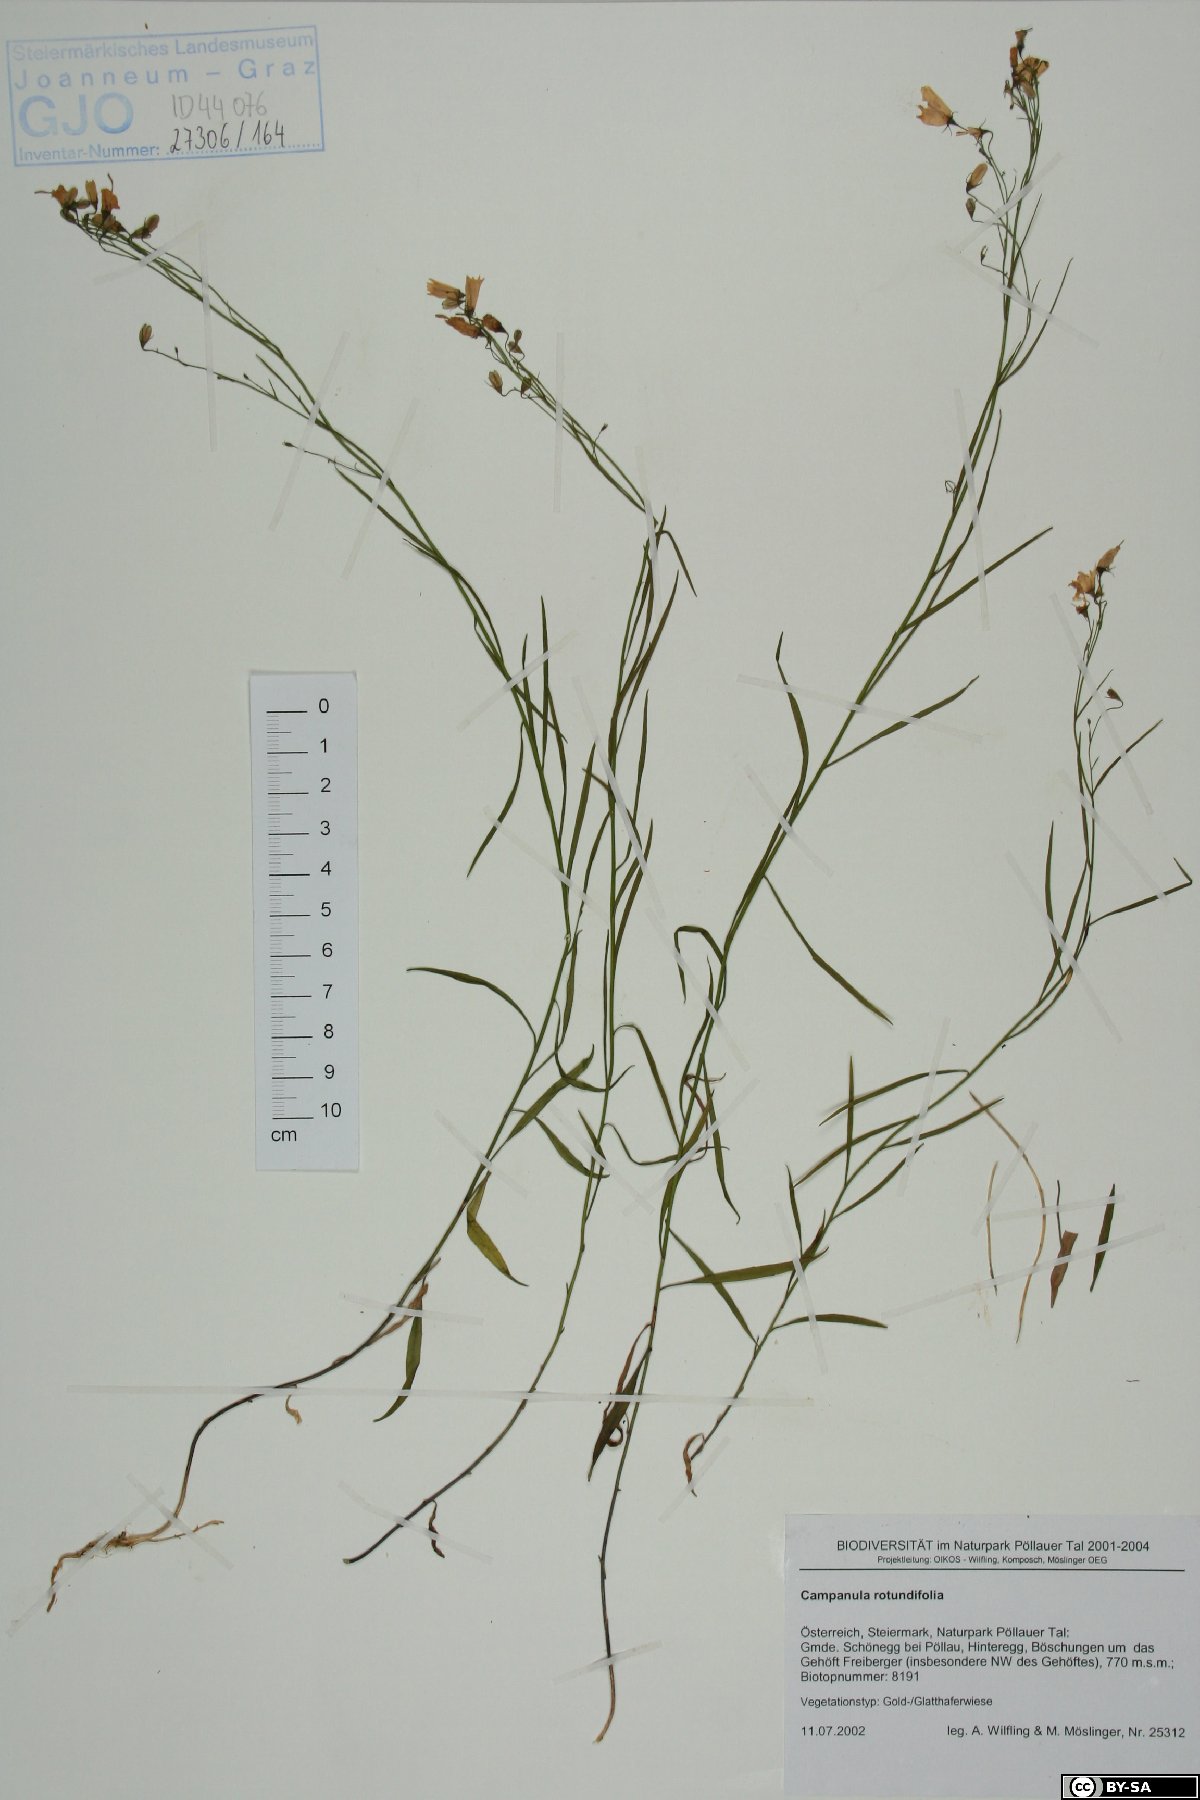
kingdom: Plantae
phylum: Tracheophyta
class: Magnoliopsida
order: Asterales
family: Campanulaceae
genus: Campanula
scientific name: Campanula rotundifolia
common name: Harebell
